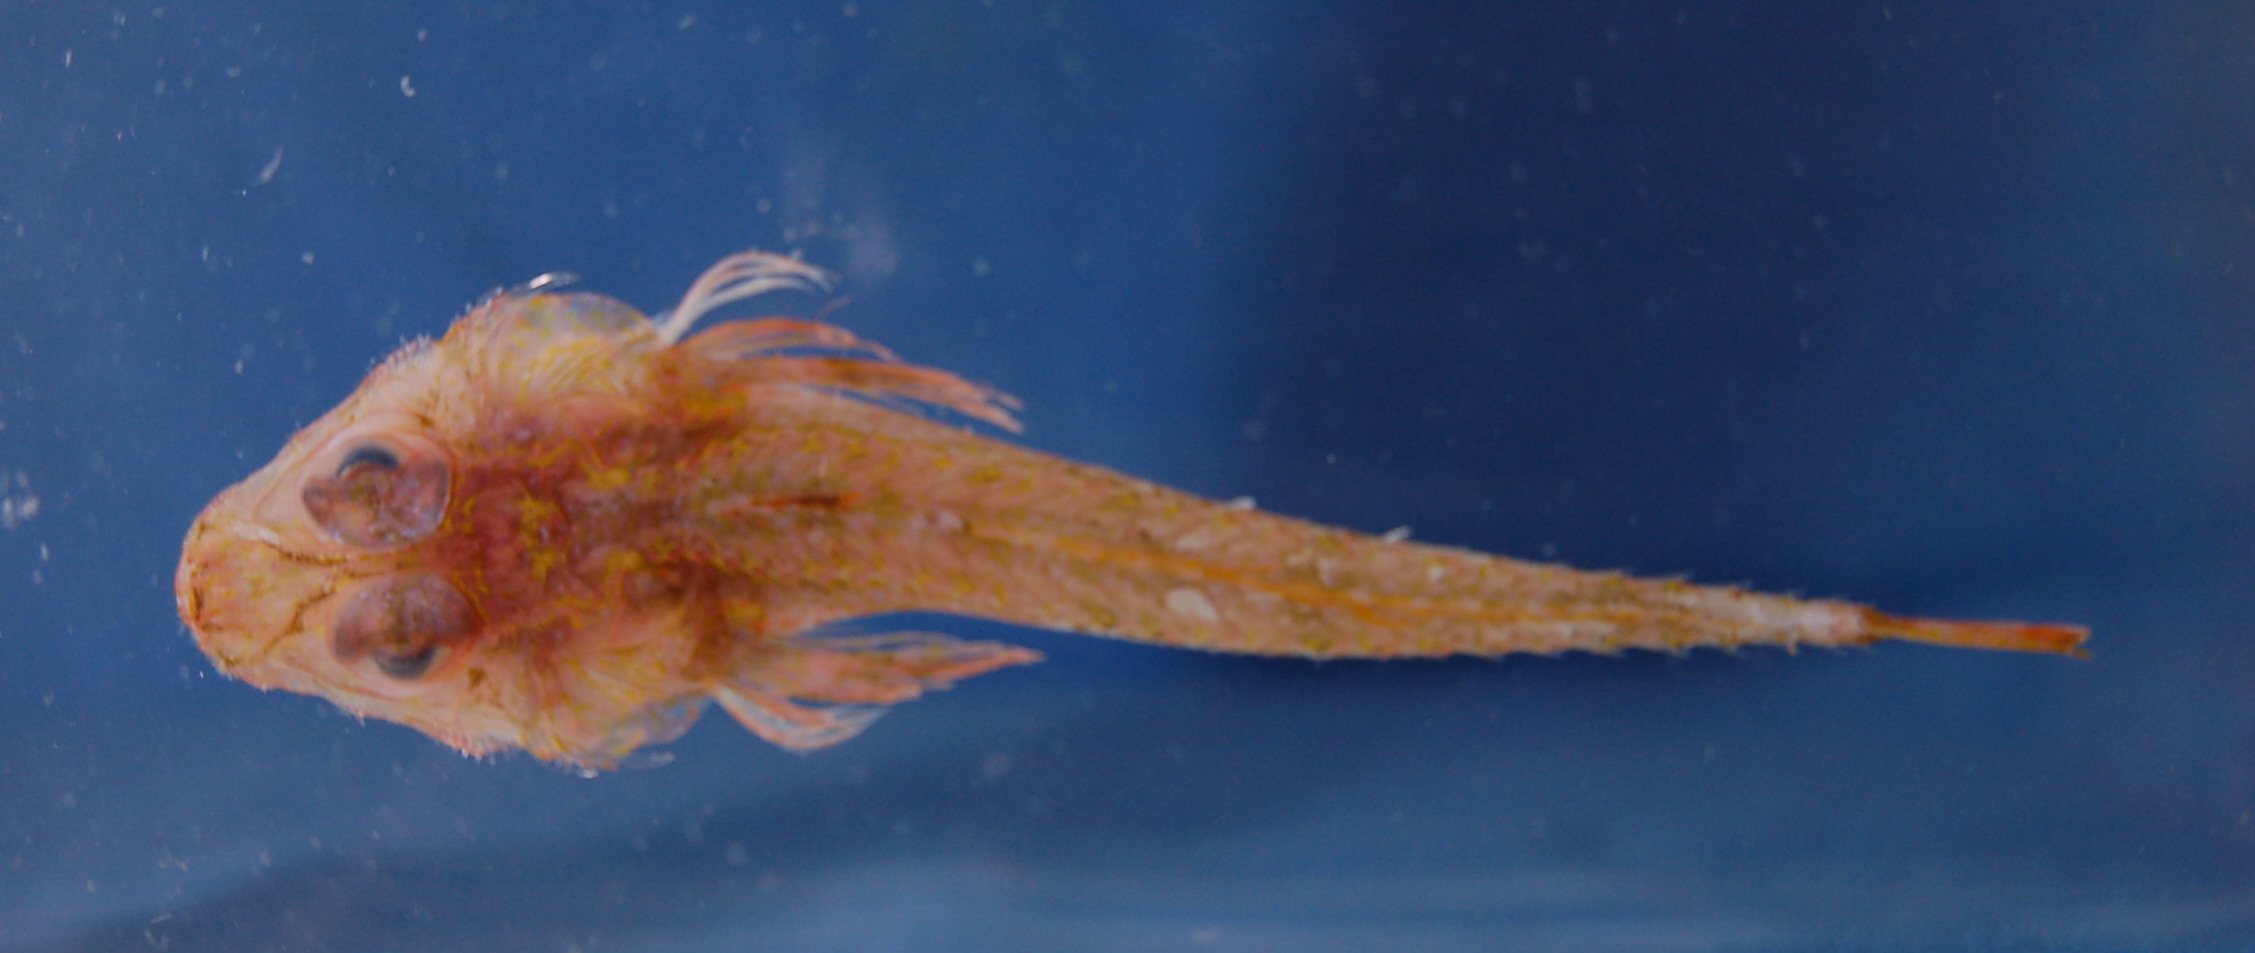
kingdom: Animalia
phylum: Chordata
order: Scorpaeniformes
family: Hoplichthyidae
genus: Hoplichthys
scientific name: Hoplichthys acanthopleurus
